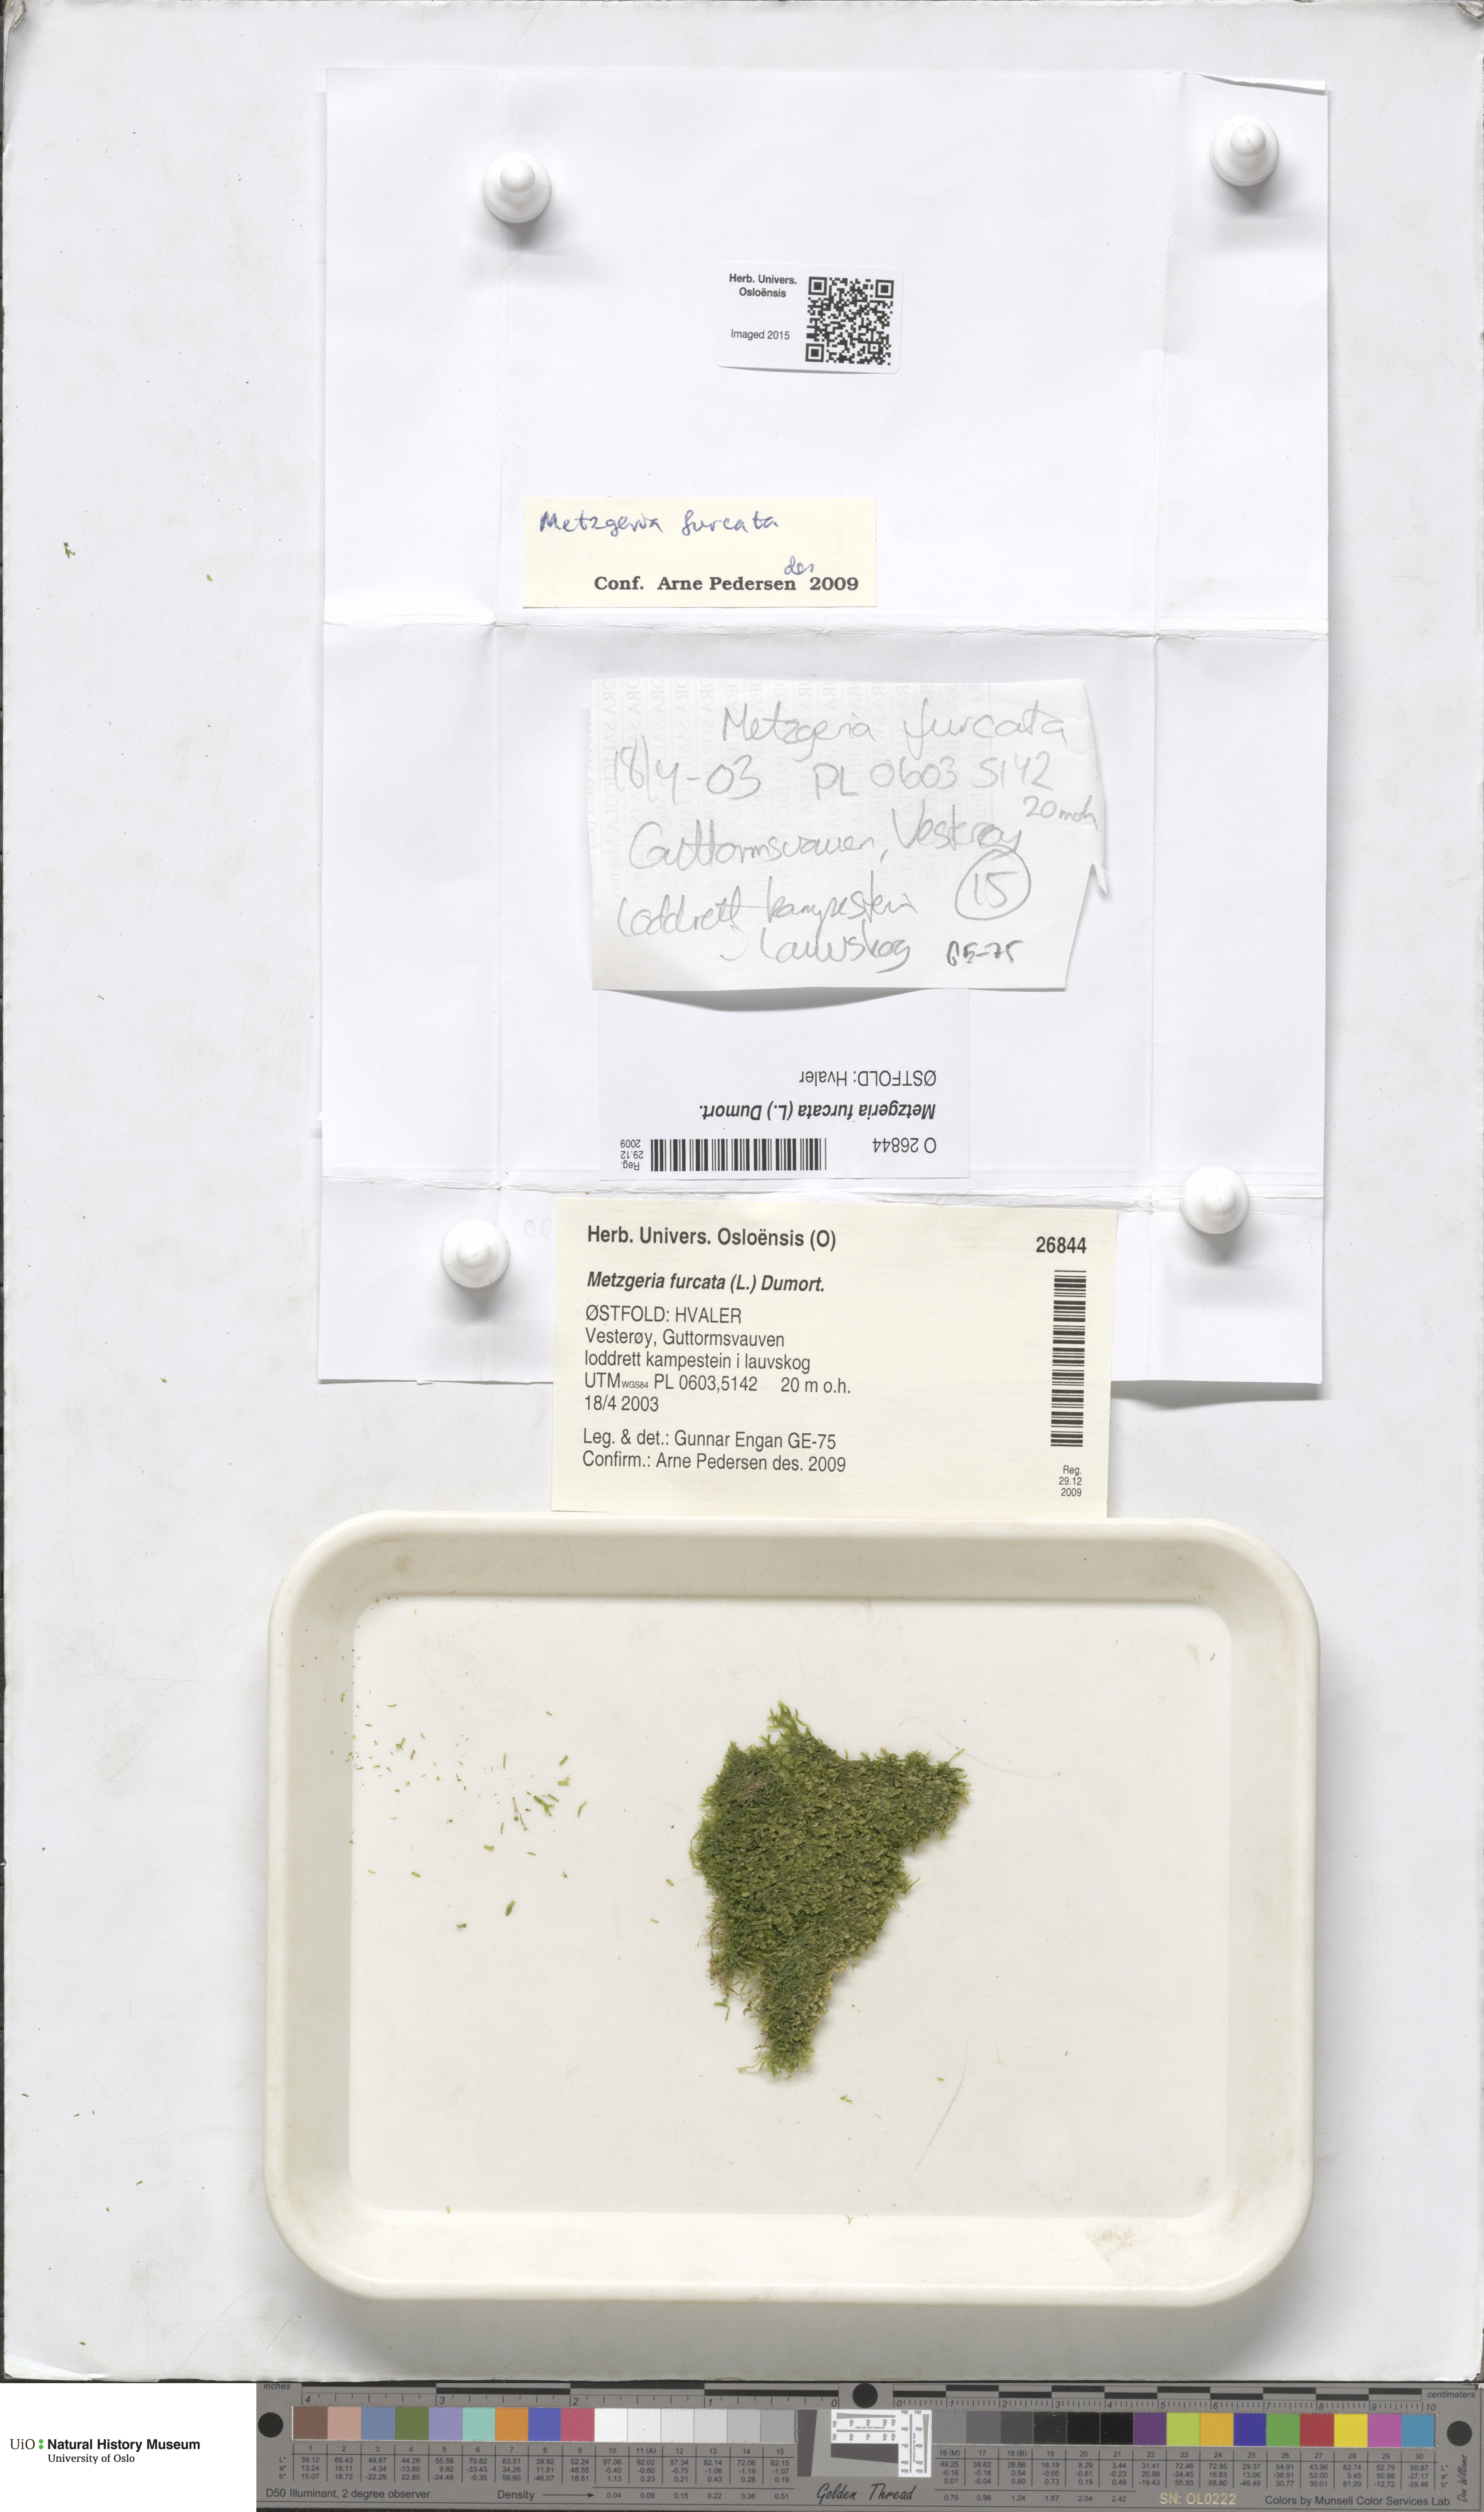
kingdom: Plantae
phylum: Marchantiophyta
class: Jungermanniopsida
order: Metzgeriales
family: Metzgeriaceae
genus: Metzgeria
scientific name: Metzgeria furcata
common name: Forked veilwort
